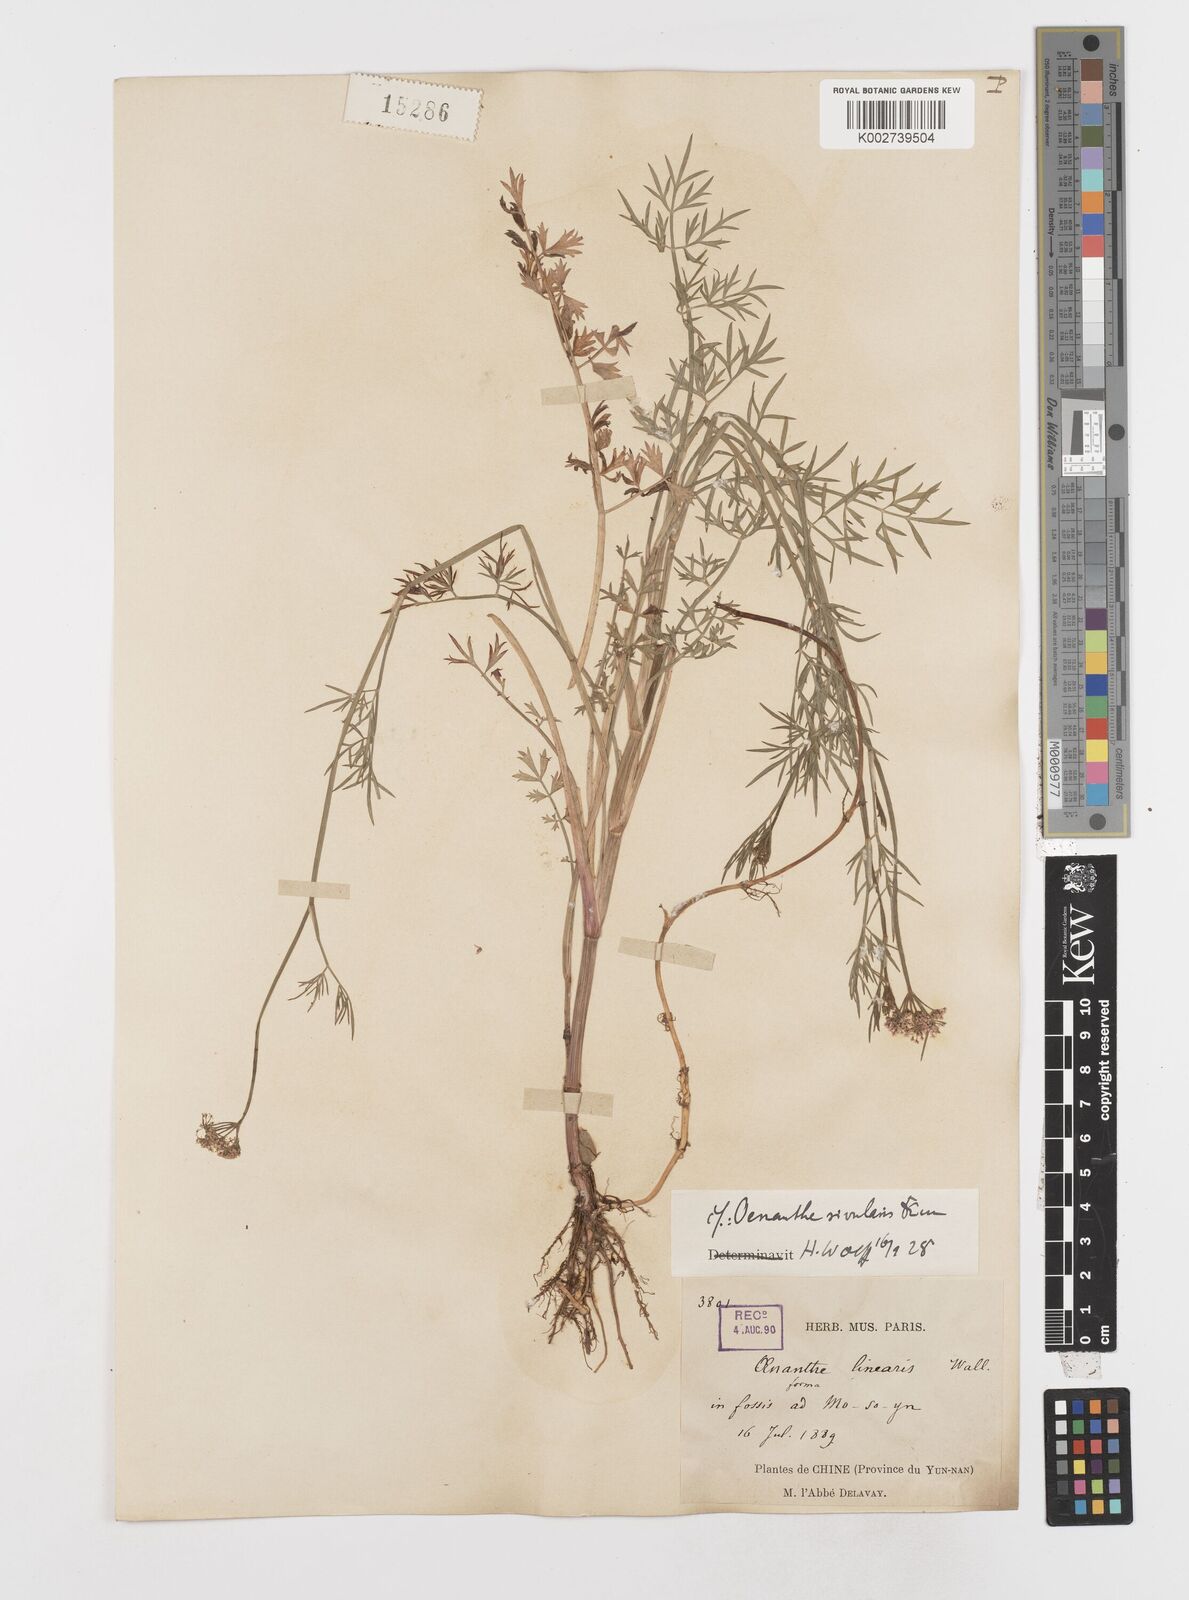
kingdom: Plantae
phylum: Tracheophyta
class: Magnoliopsida
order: Apiales
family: Apiaceae
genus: Oenanthe
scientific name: Oenanthe linearis
